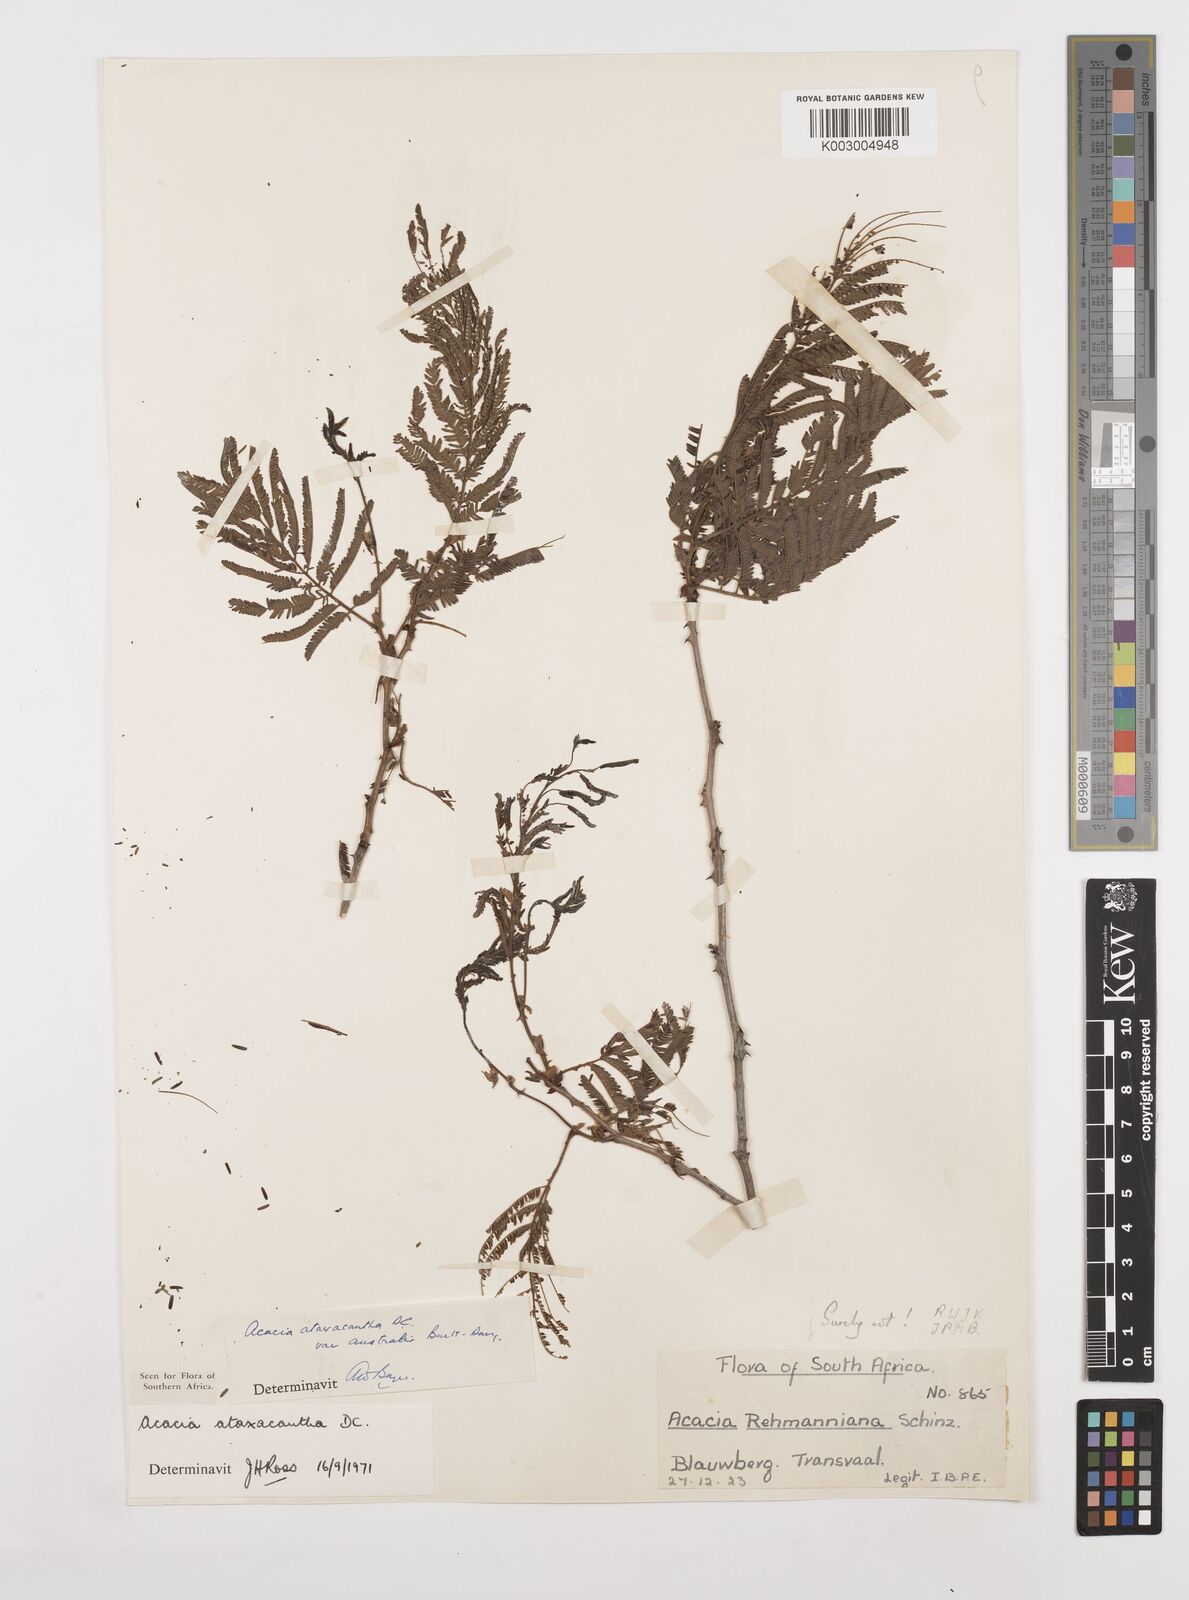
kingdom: Plantae
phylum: Tracheophyta
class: Magnoliopsida
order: Fabales
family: Fabaceae
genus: Senegalia
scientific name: Senegalia ataxacantha
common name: Flame acacia
